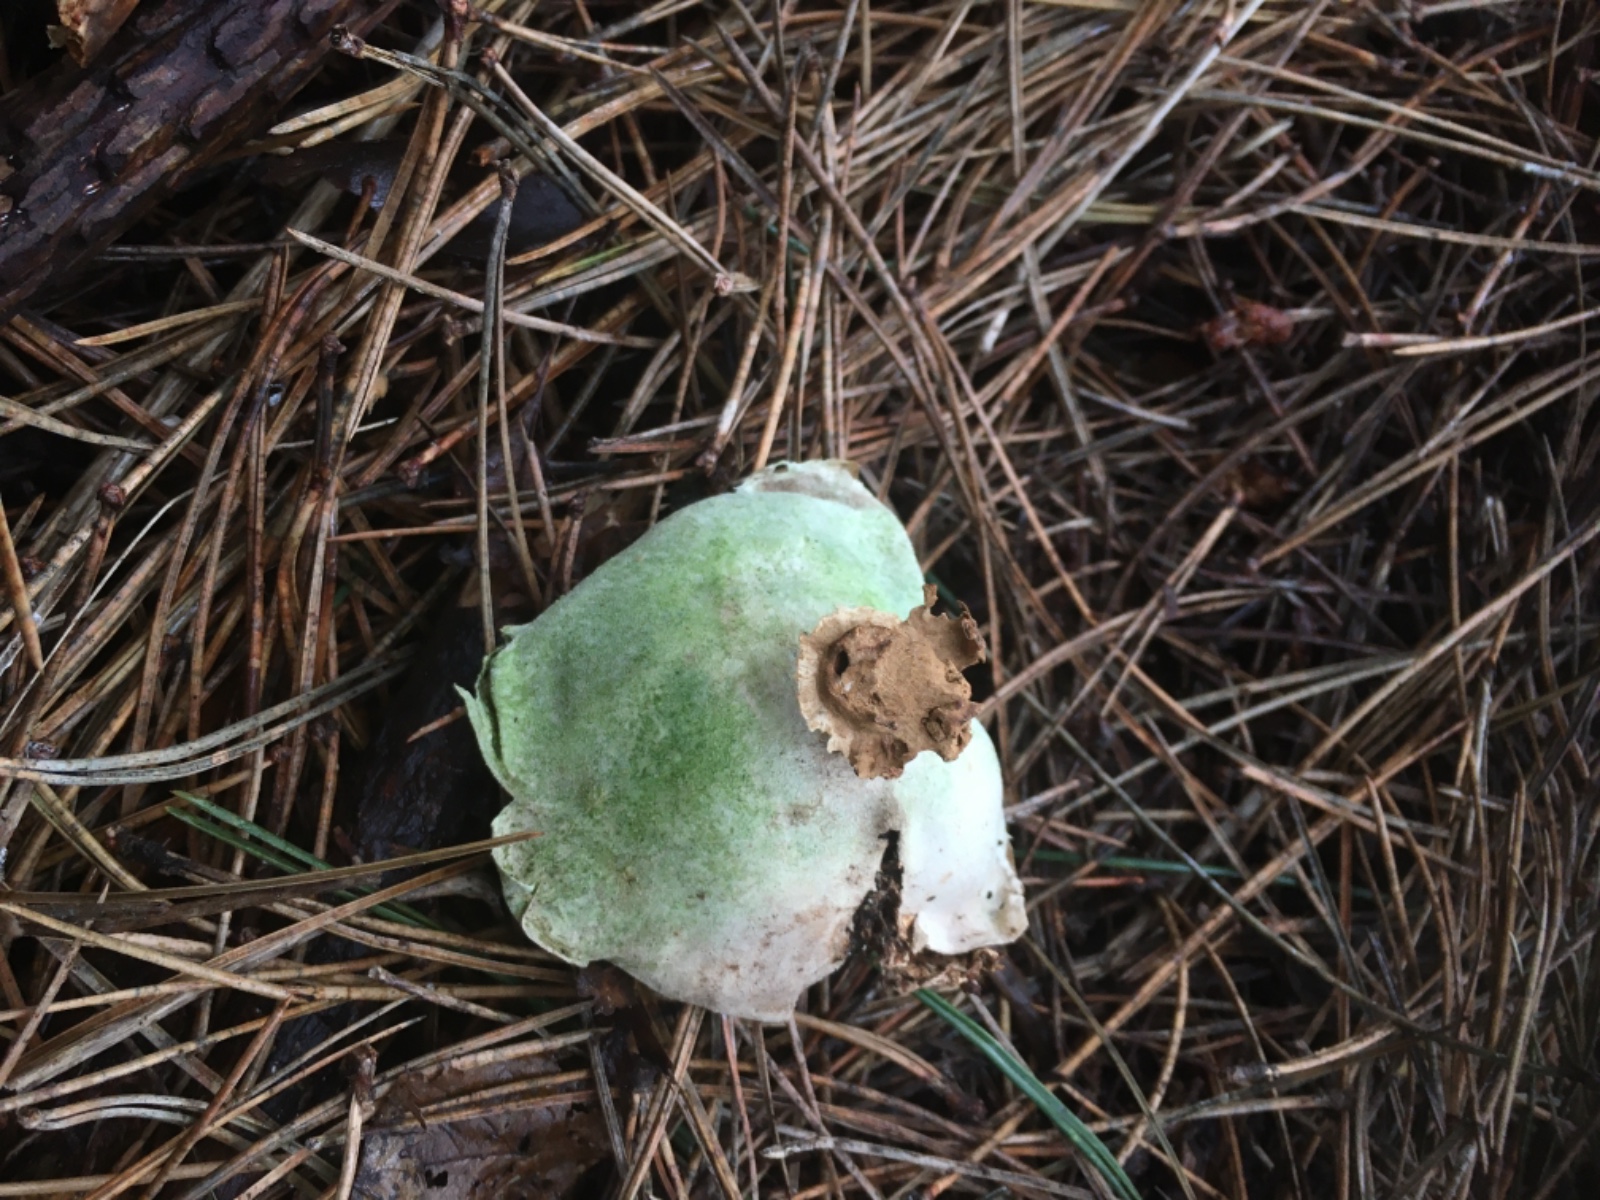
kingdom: Fungi
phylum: Basidiomycota
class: Agaricomycetes
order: Geastrales
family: Geastraceae
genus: Geastrum
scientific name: Geastrum
